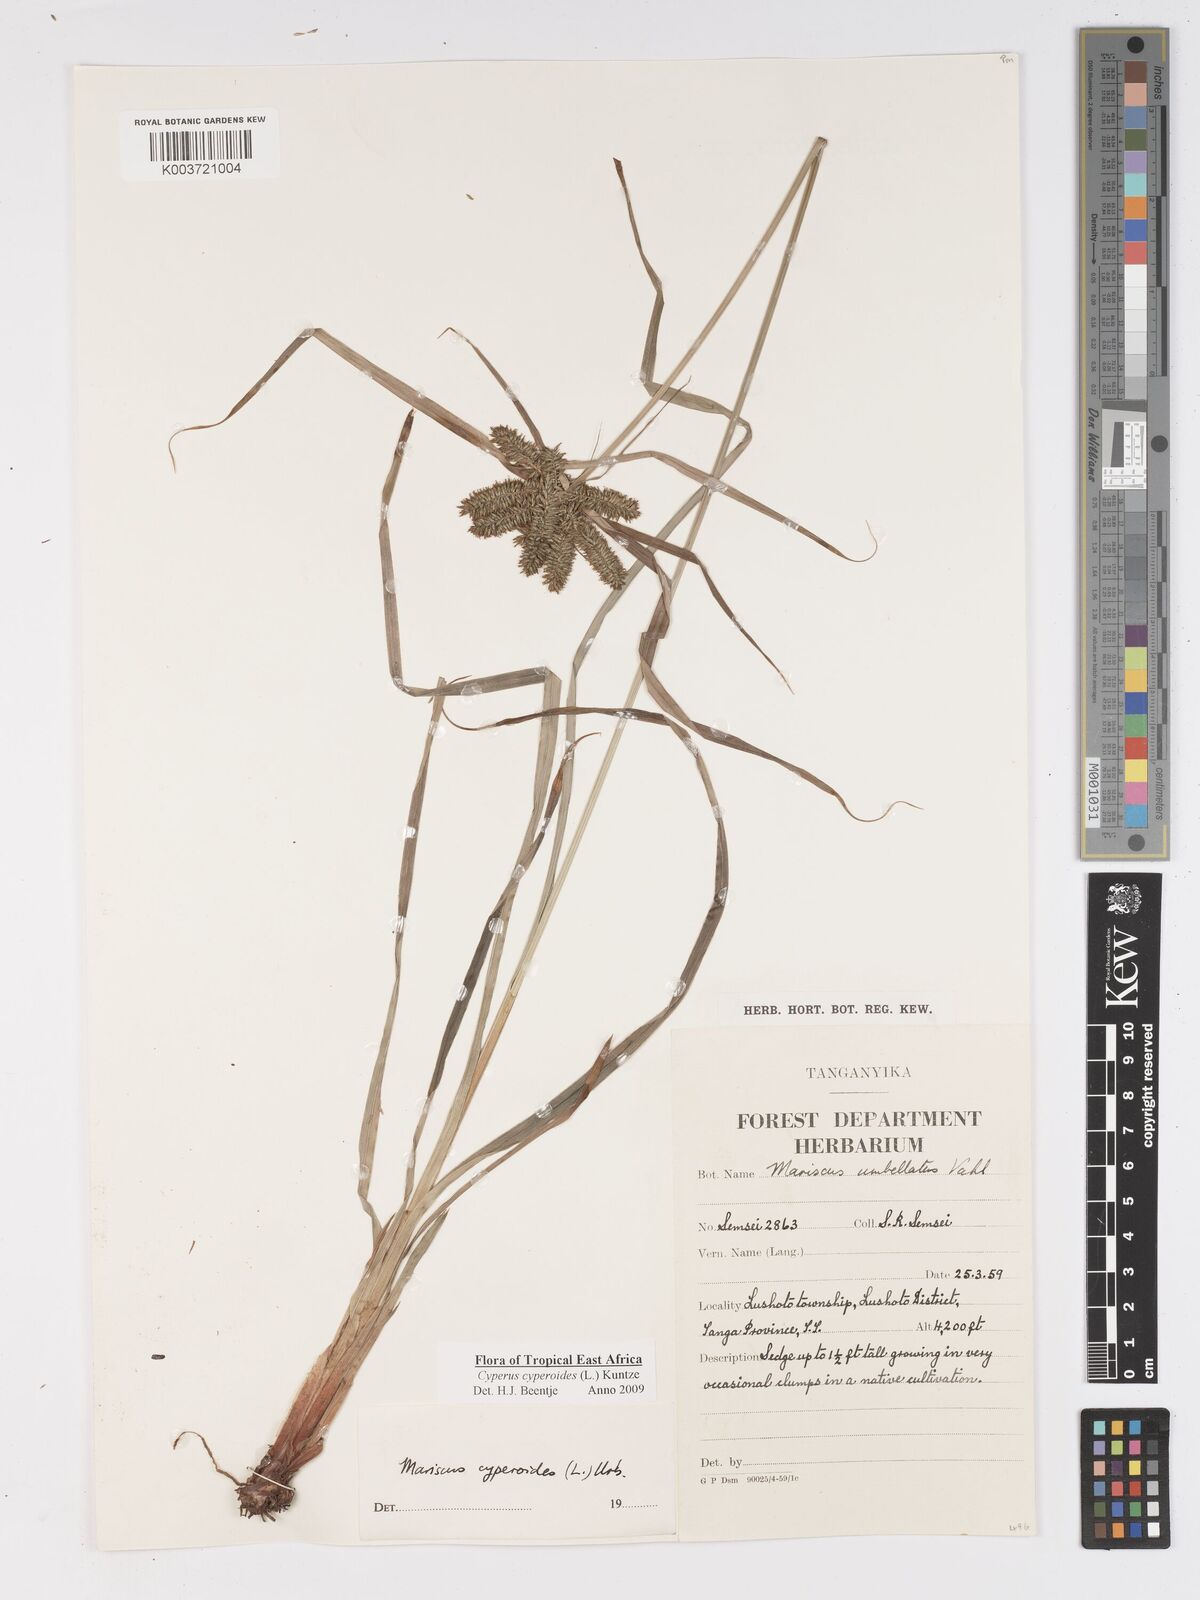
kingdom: Plantae
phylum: Tracheophyta
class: Liliopsida
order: Poales
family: Cyperaceae
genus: Cyperus
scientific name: Cyperus
